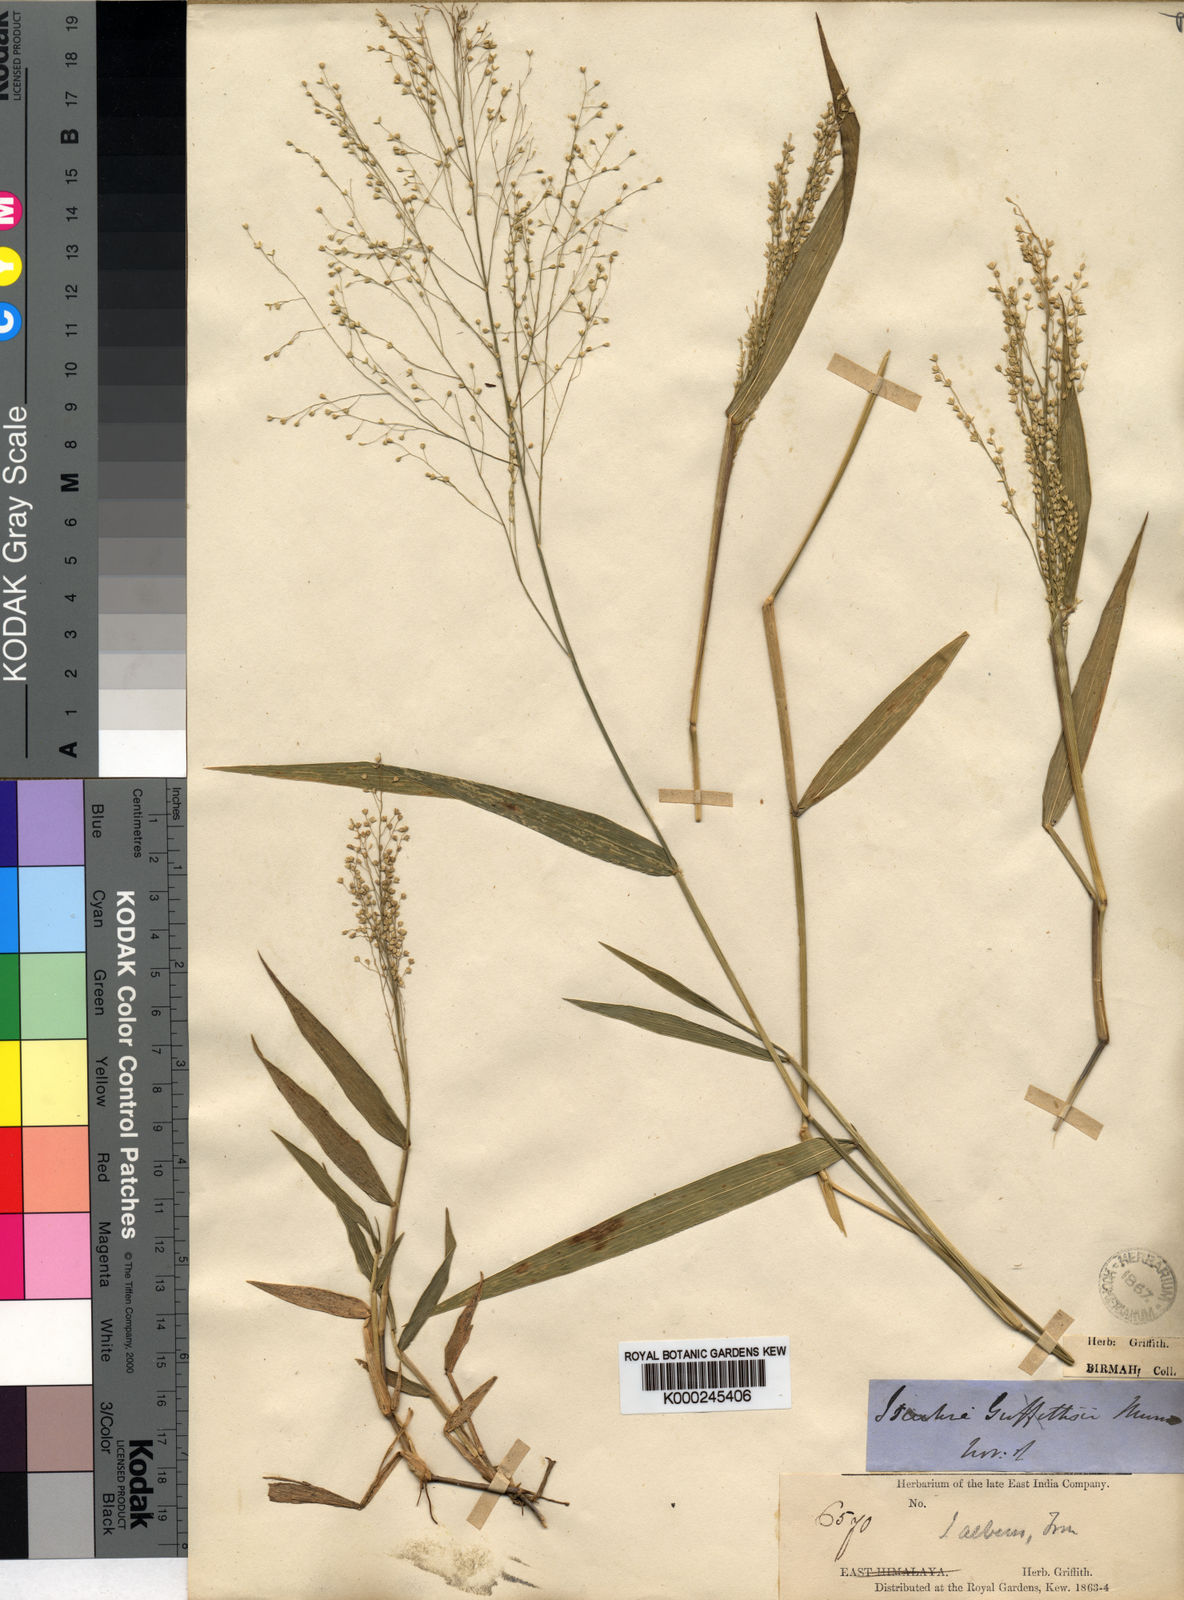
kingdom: Plantae
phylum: Tracheophyta
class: Liliopsida
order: Poales
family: Poaceae
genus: Isachne
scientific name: Isachne albens
